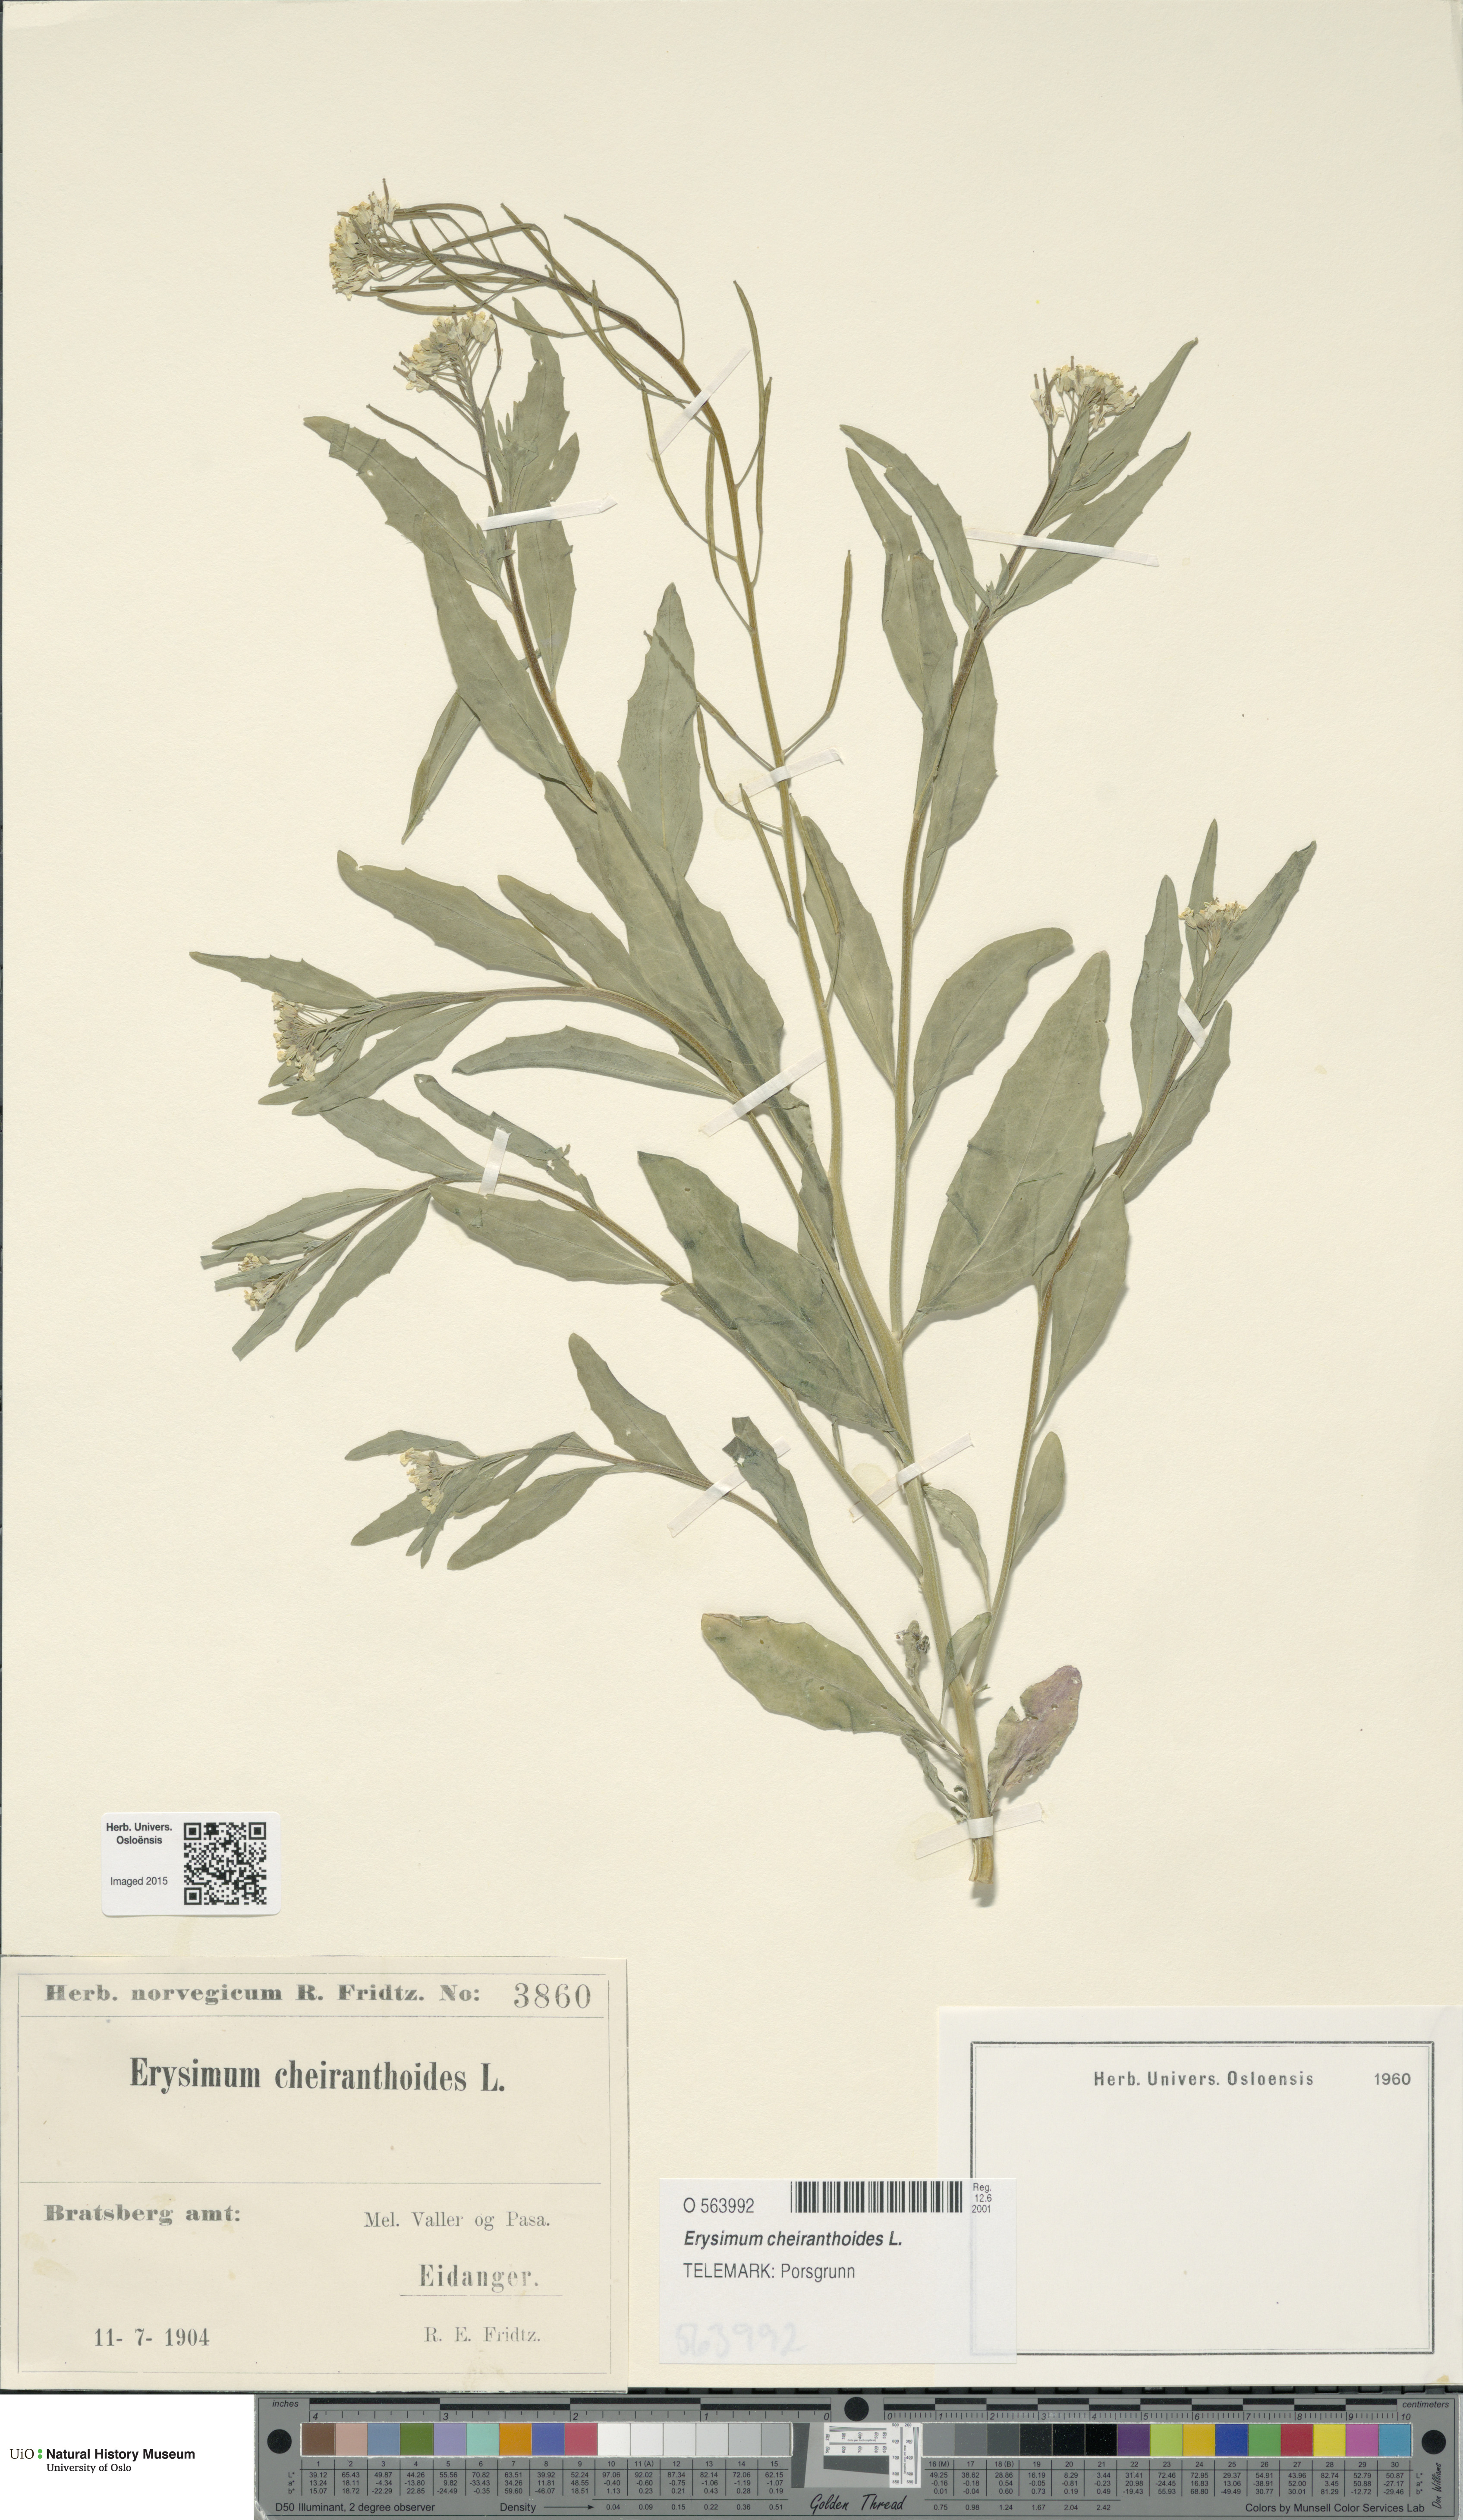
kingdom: Plantae
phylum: Tracheophyta
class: Magnoliopsida
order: Brassicales
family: Brassicaceae
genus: Erysimum
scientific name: Erysimum cheiranthoides
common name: Treacle mustard
